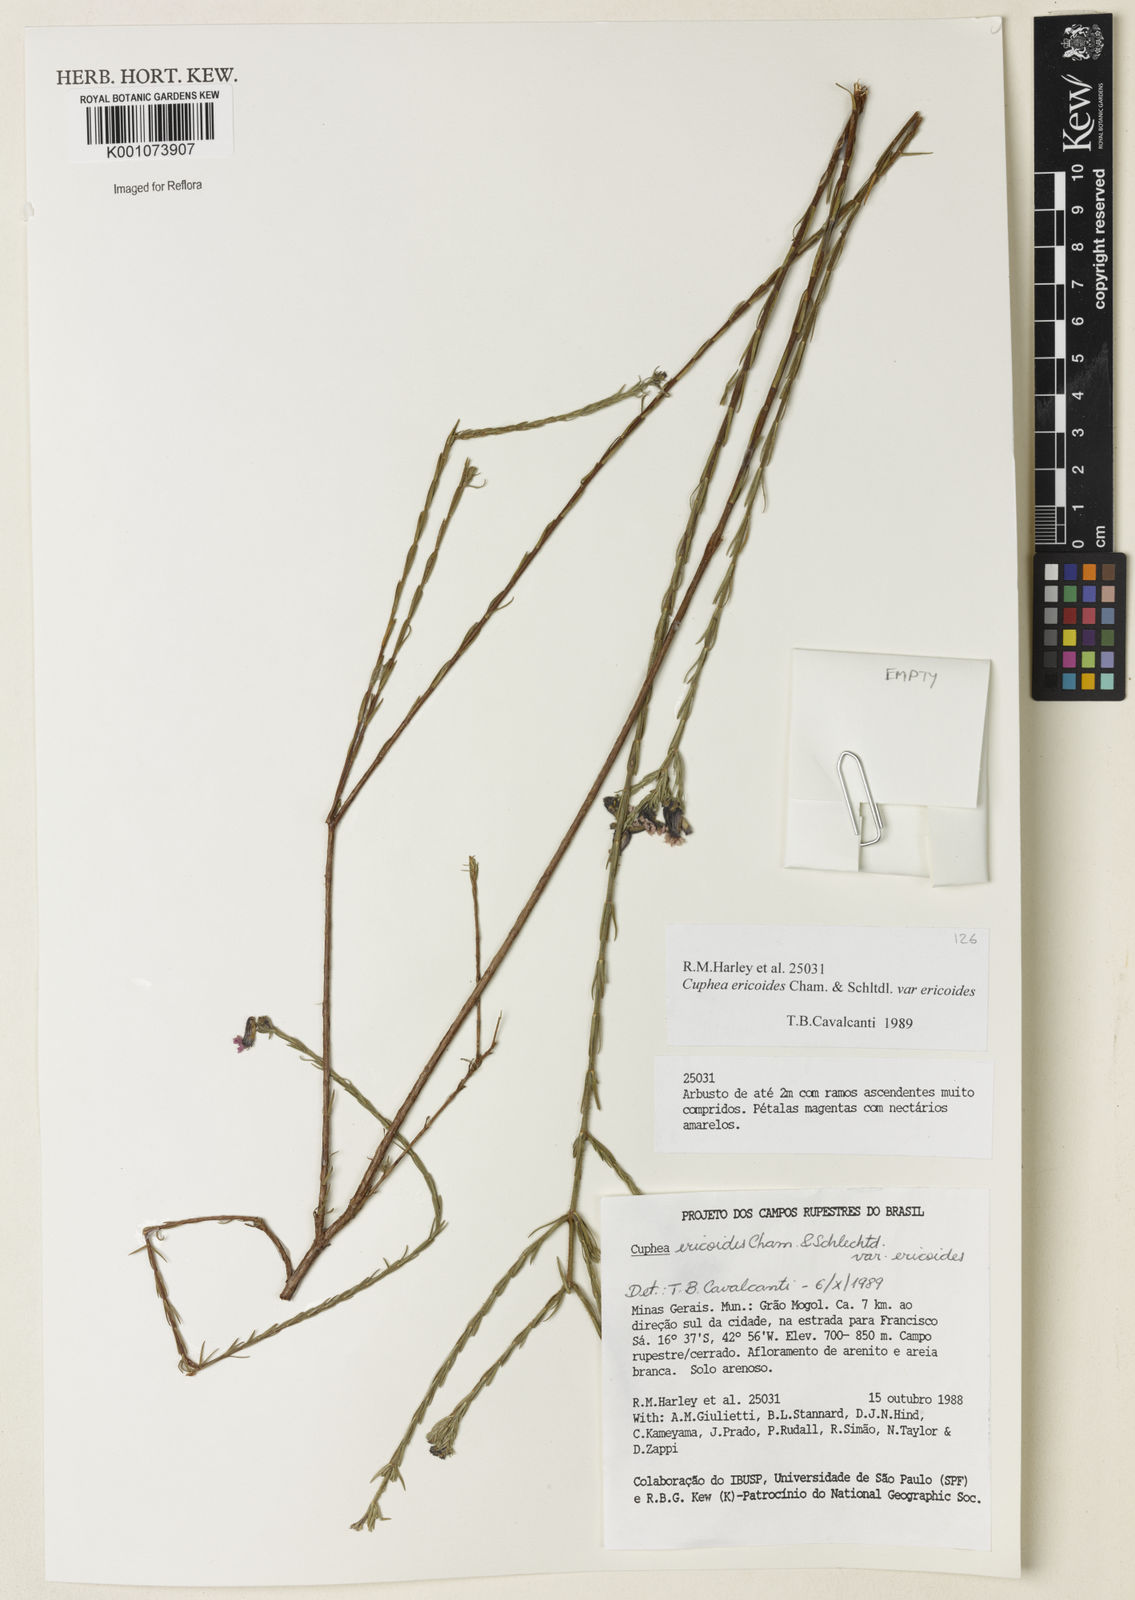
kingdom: Plantae
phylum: Tracheophyta
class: Magnoliopsida
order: Myrtales
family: Lythraceae
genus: Cuphea
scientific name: Cuphea ericoides
